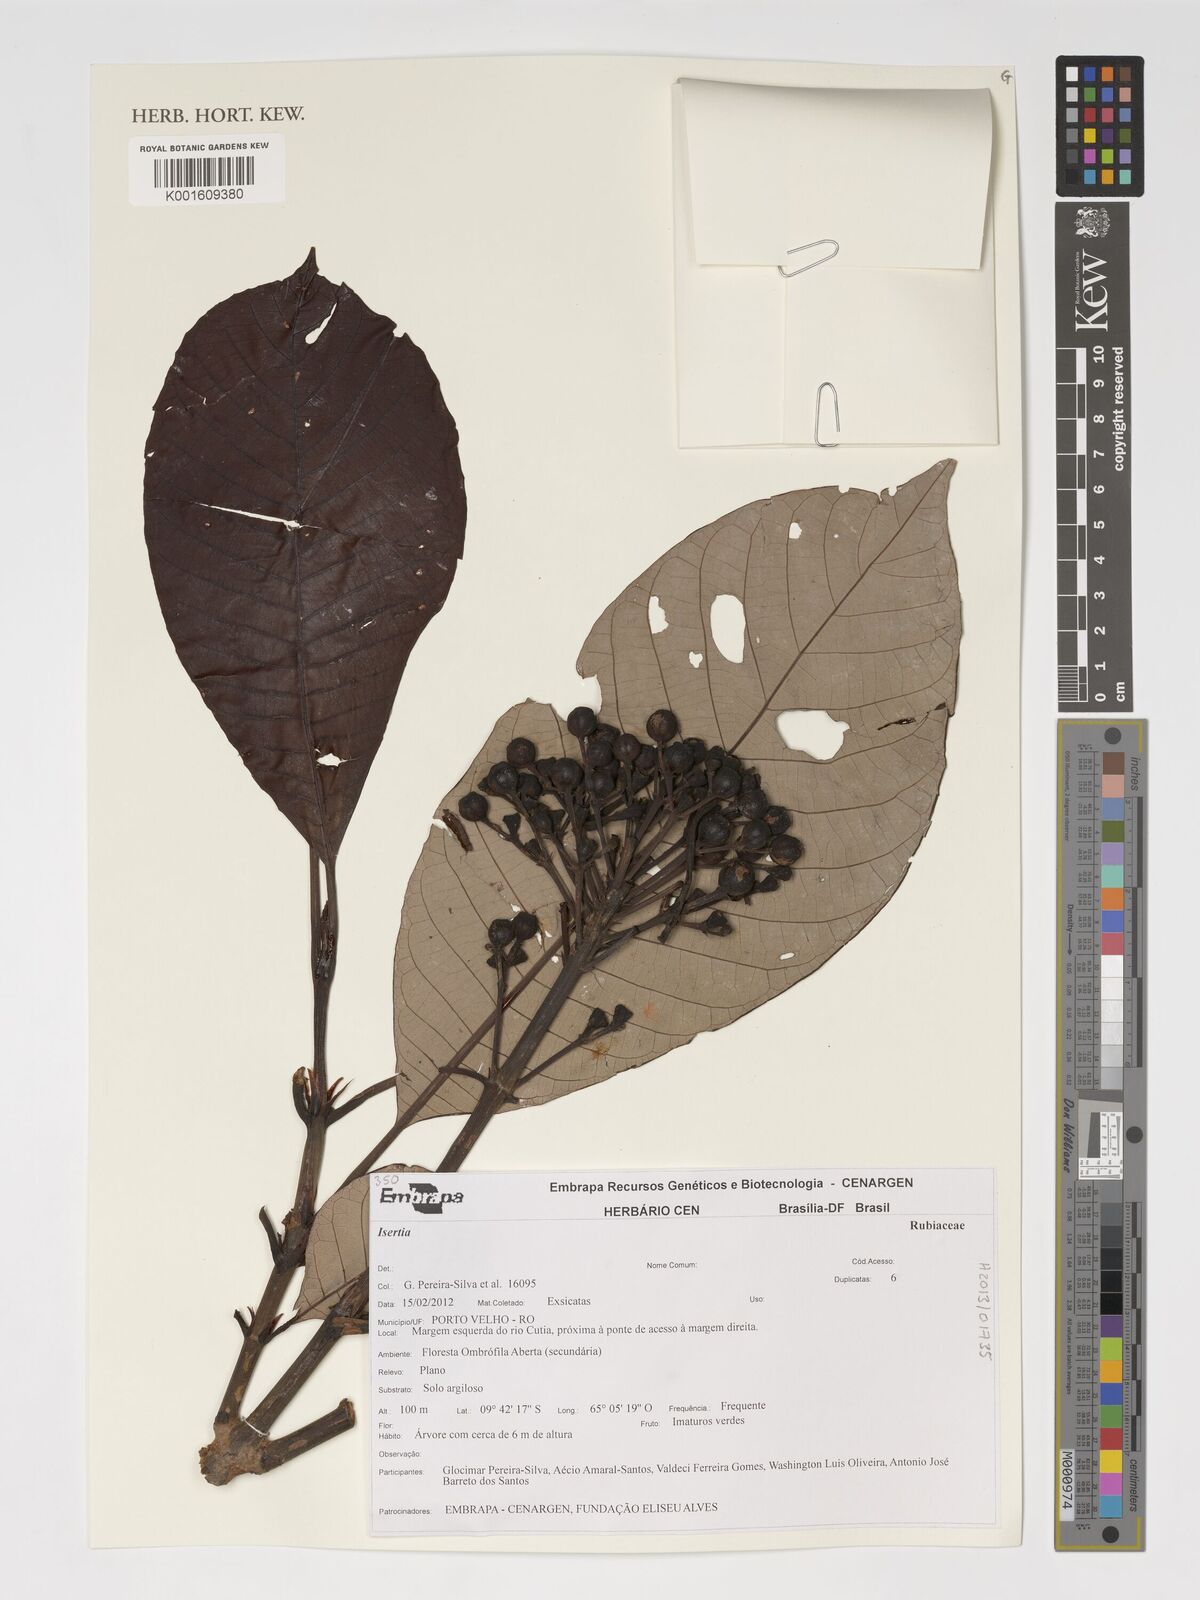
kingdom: Plantae
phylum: Tracheophyta
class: Magnoliopsida
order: Gentianales
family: Rubiaceae
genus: Isertia
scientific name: Isertia
